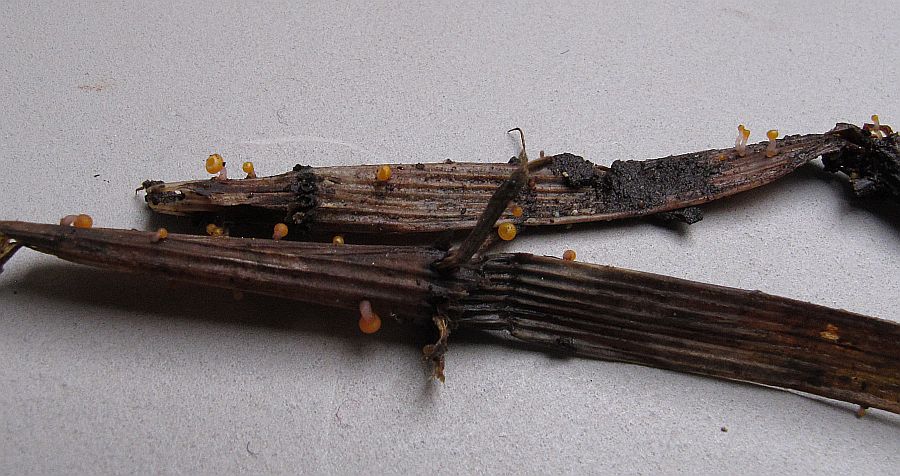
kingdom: Fungi
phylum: Ascomycota
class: Leotiomycetes
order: Helotiales
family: Helotiaceae
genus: Stamnaria
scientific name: Stamnaria persoonii
